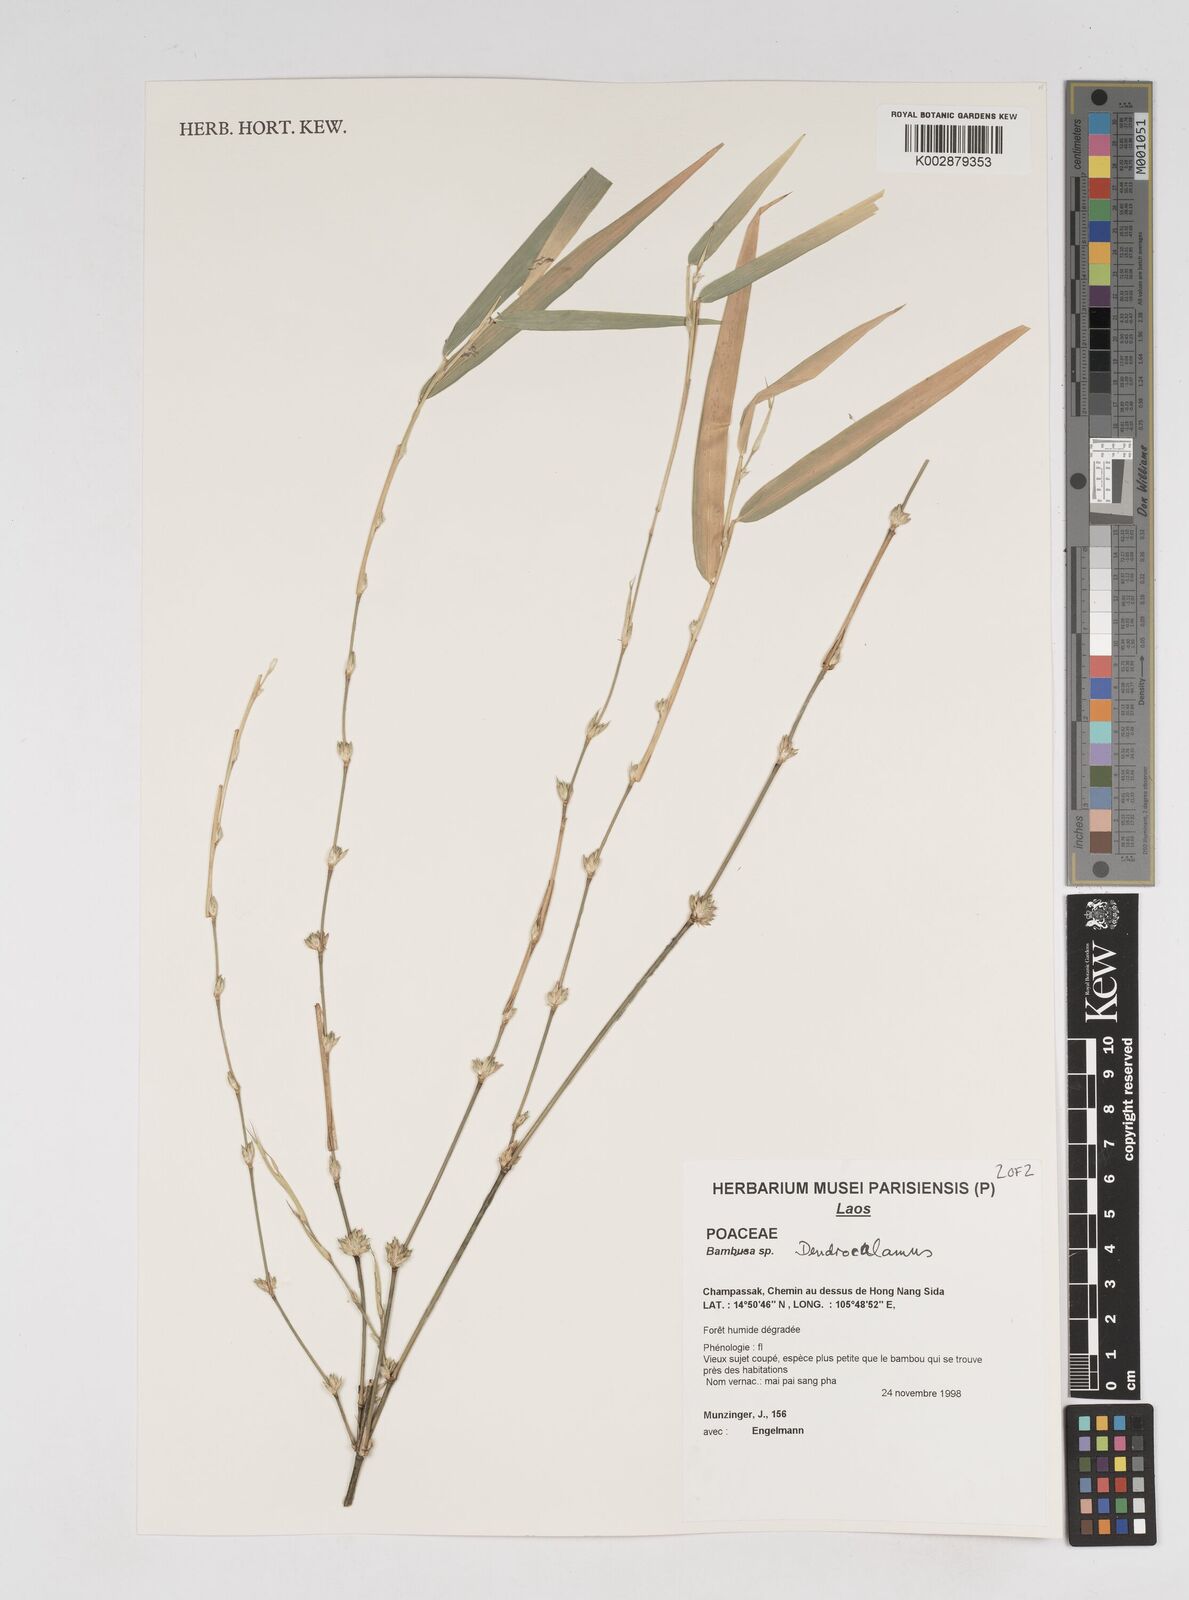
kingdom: Plantae
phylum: Tracheophyta
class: Liliopsida
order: Poales
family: Poaceae
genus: Dendrocalamus
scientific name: Dendrocalamus
